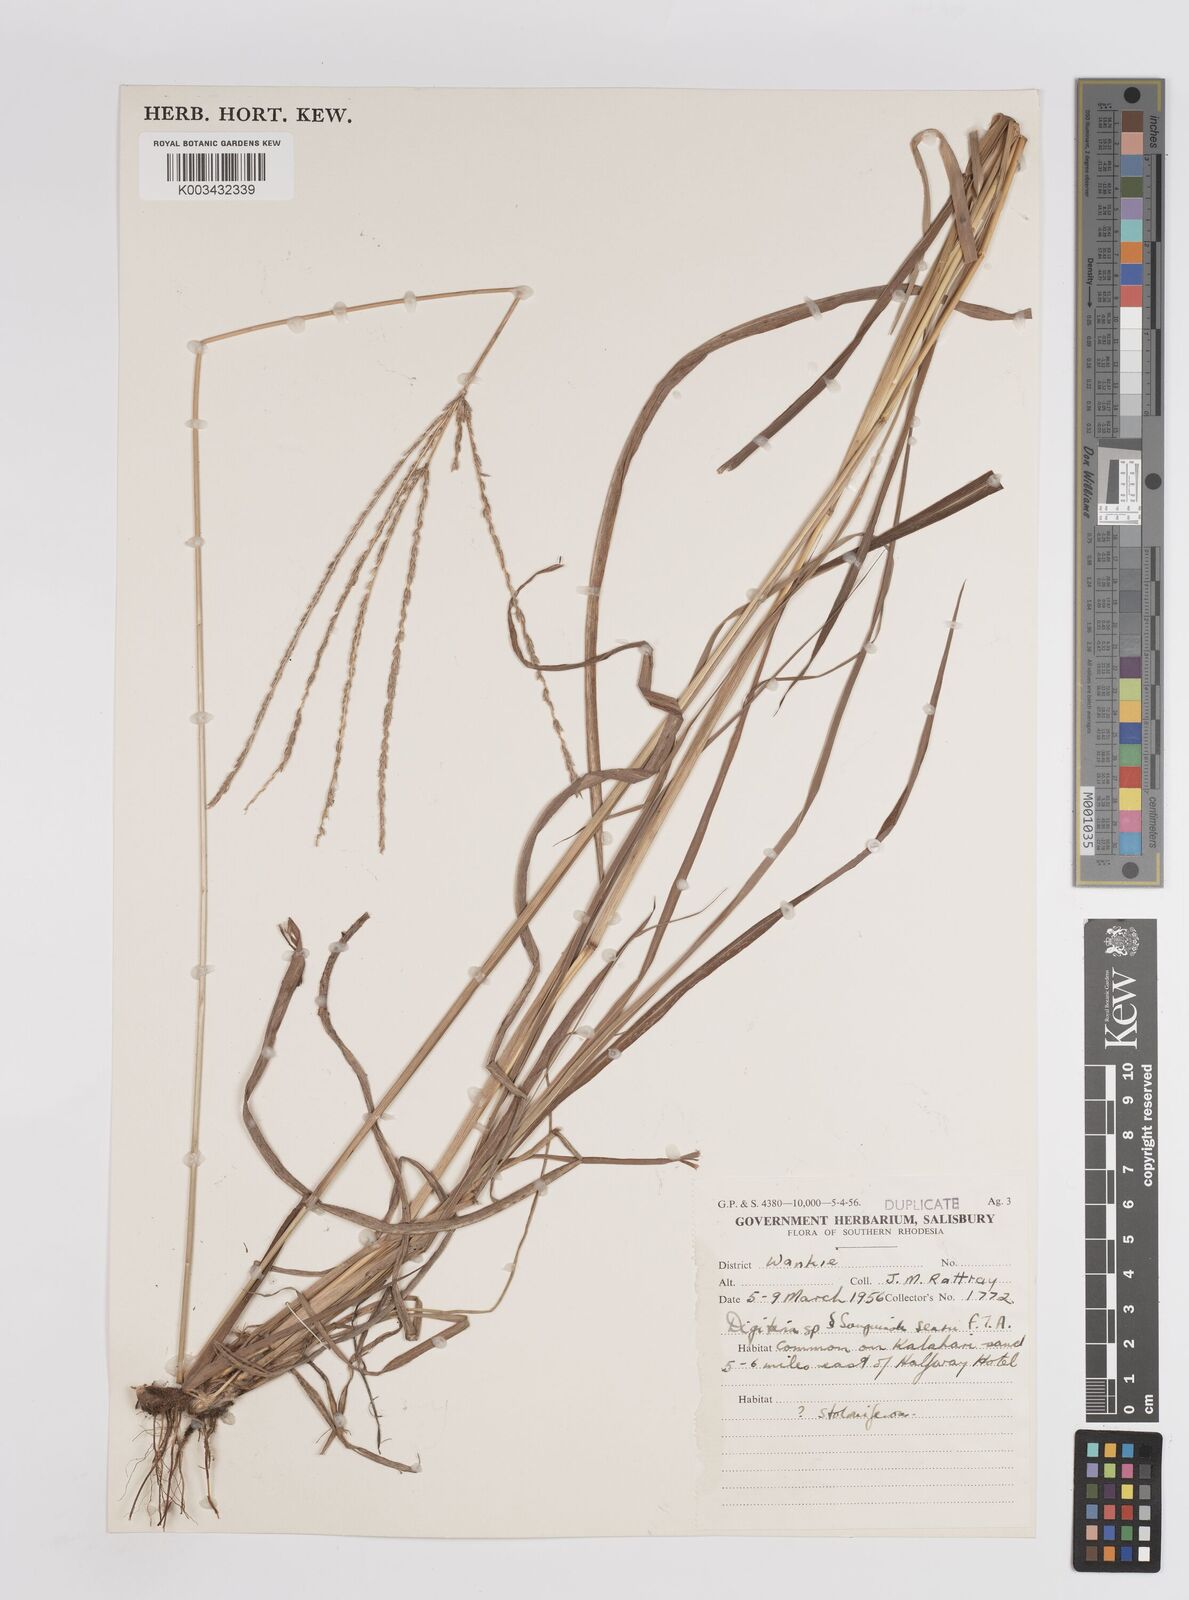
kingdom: Plantae
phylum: Tracheophyta
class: Liliopsida
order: Poales
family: Poaceae
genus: Digitaria
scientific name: Digitaria eriantha
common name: Digitgrass
